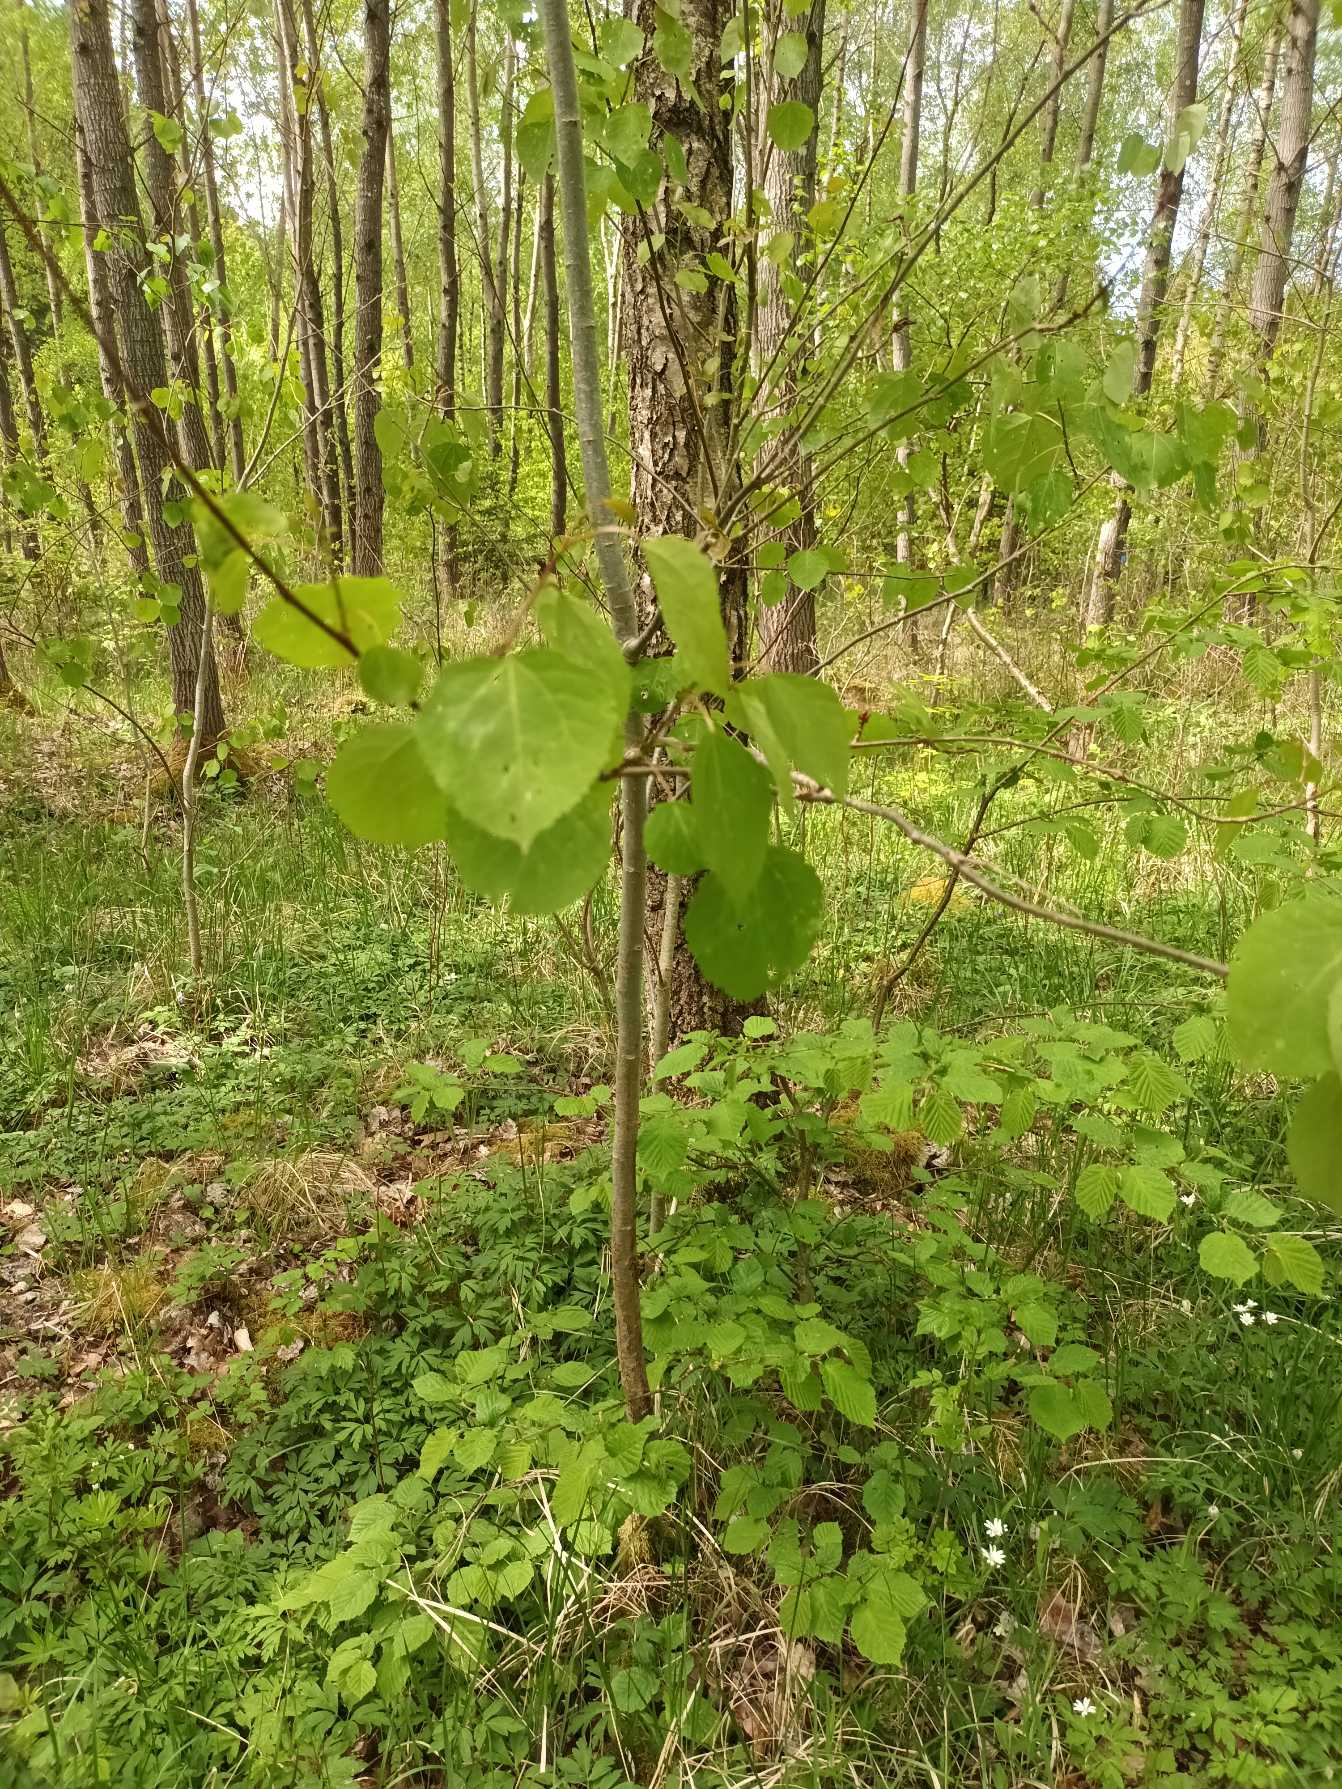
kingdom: Plantae
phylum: Tracheophyta
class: Magnoliopsida
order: Malpighiales
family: Salicaceae
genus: Populus
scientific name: Populus tremula
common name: Bævreasp
